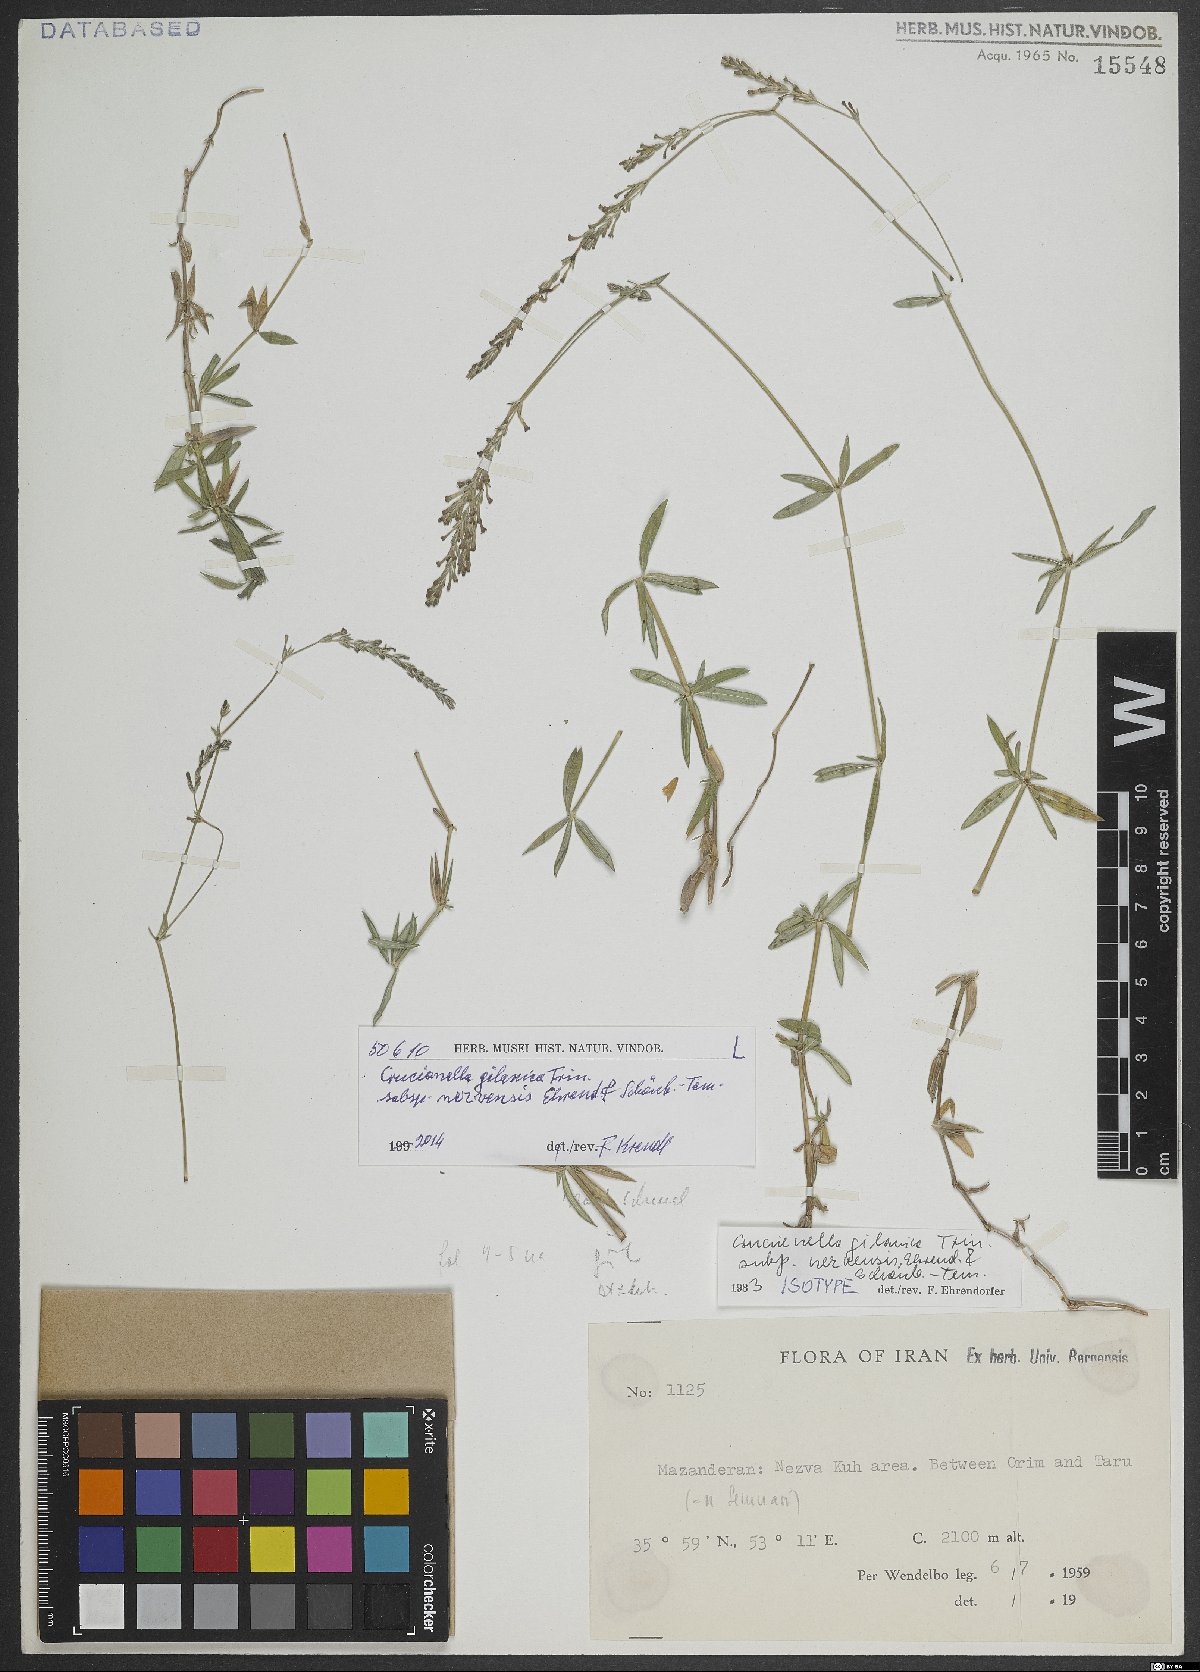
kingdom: Plantae
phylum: Tracheophyta
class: Magnoliopsida
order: Gentianales
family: Rubiaceae
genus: Crucianella
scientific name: Crucianella gilanica
